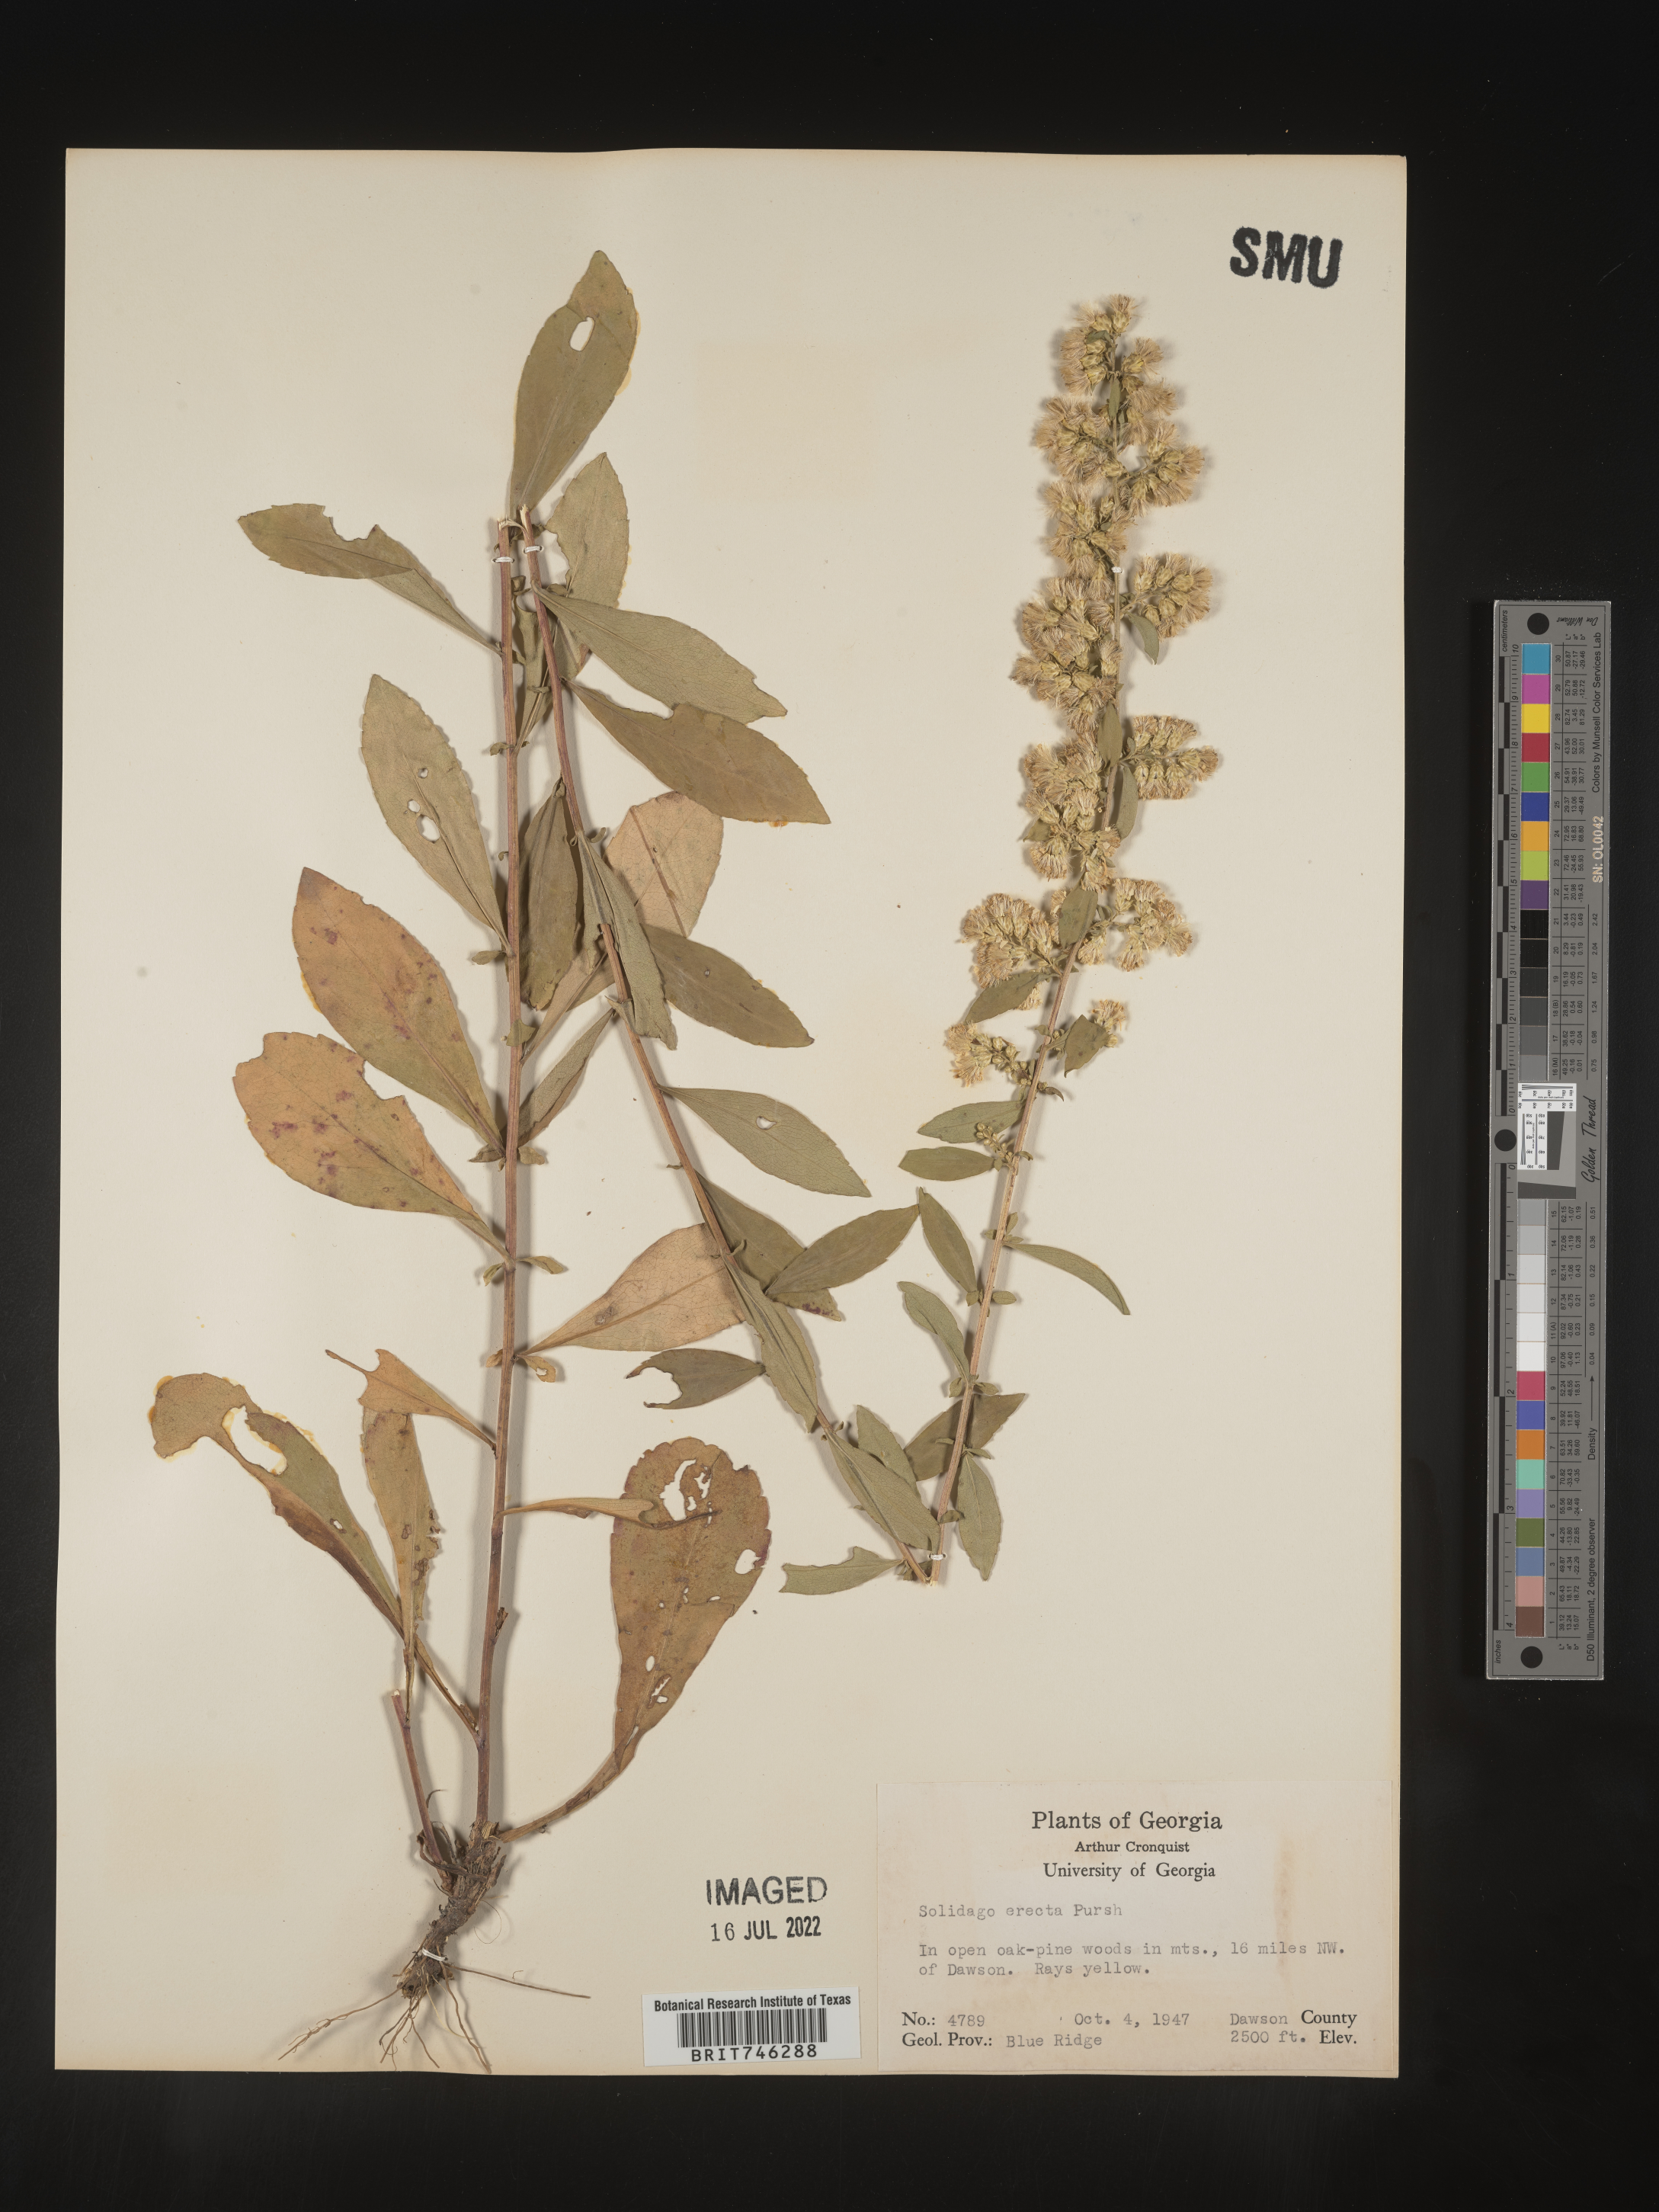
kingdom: Plantae
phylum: Tracheophyta
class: Magnoliopsida
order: Asterales
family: Asteraceae
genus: Solidago
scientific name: Solidago erecta
